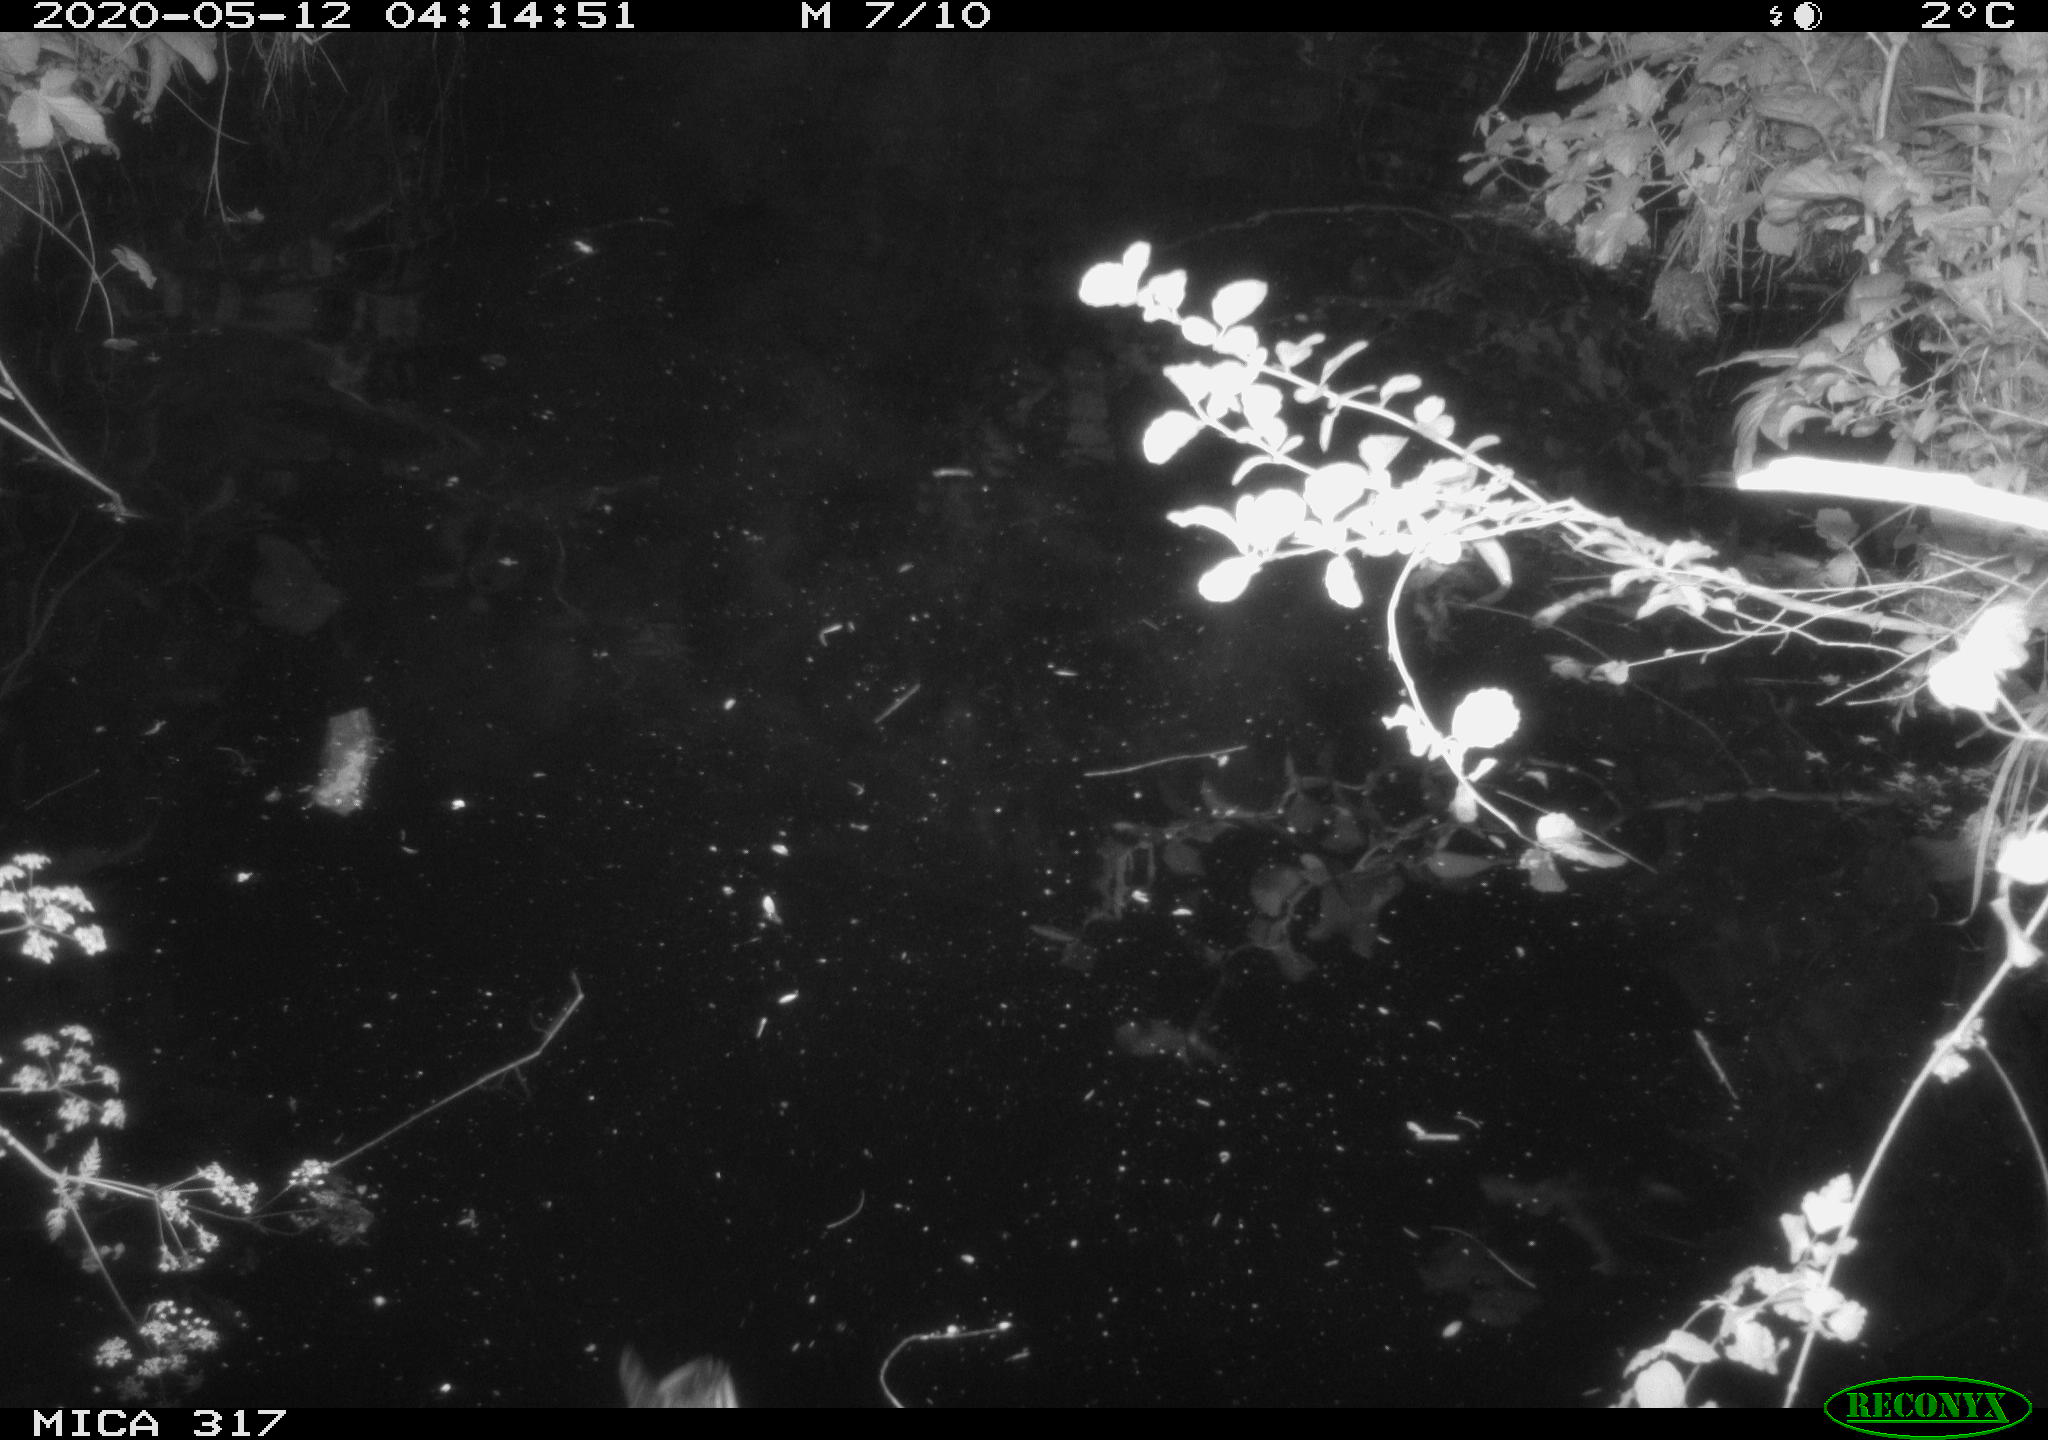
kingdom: Animalia
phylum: Chordata
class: Aves
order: Anseriformes
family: Anatidae
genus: Anas
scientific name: Anas platyrhynchos
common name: Mallard
